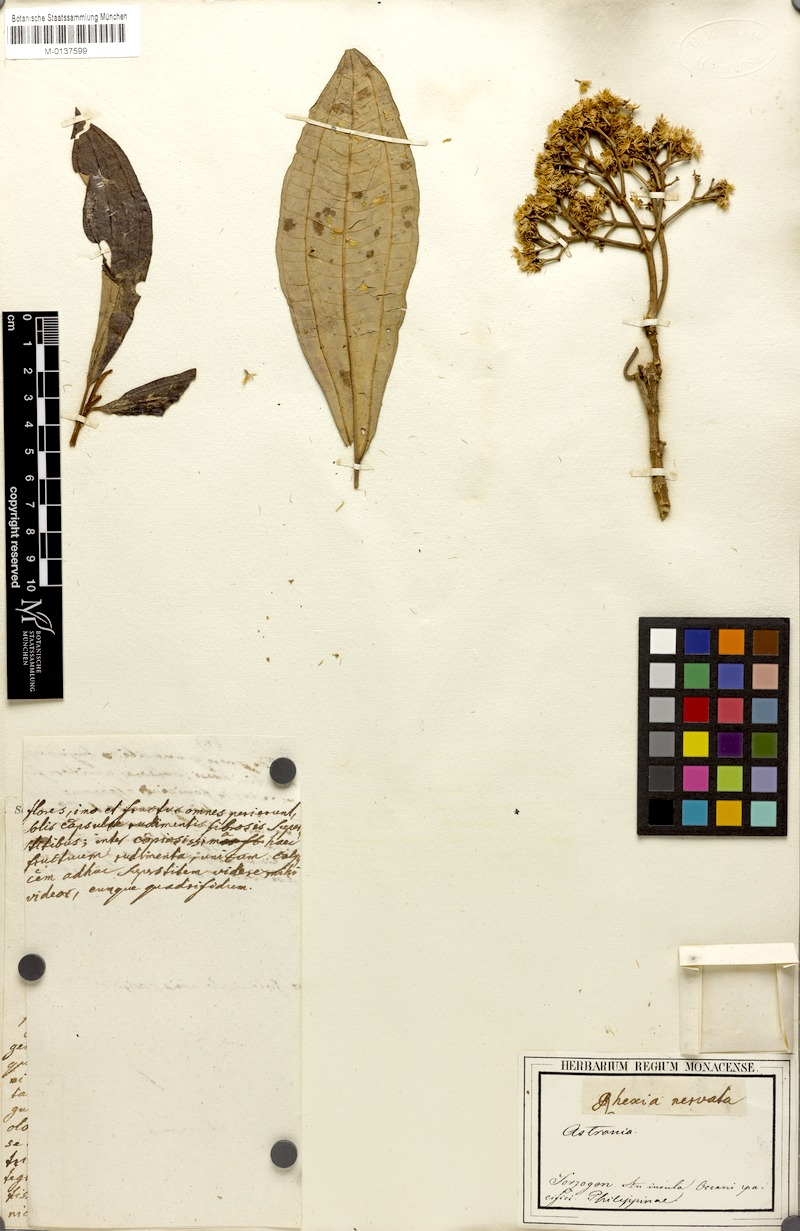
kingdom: Plantae
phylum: Tracheophyta
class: Magnoliopsida
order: Myrtales
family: Melastomataceae
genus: Rhexia
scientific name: Rhexia
